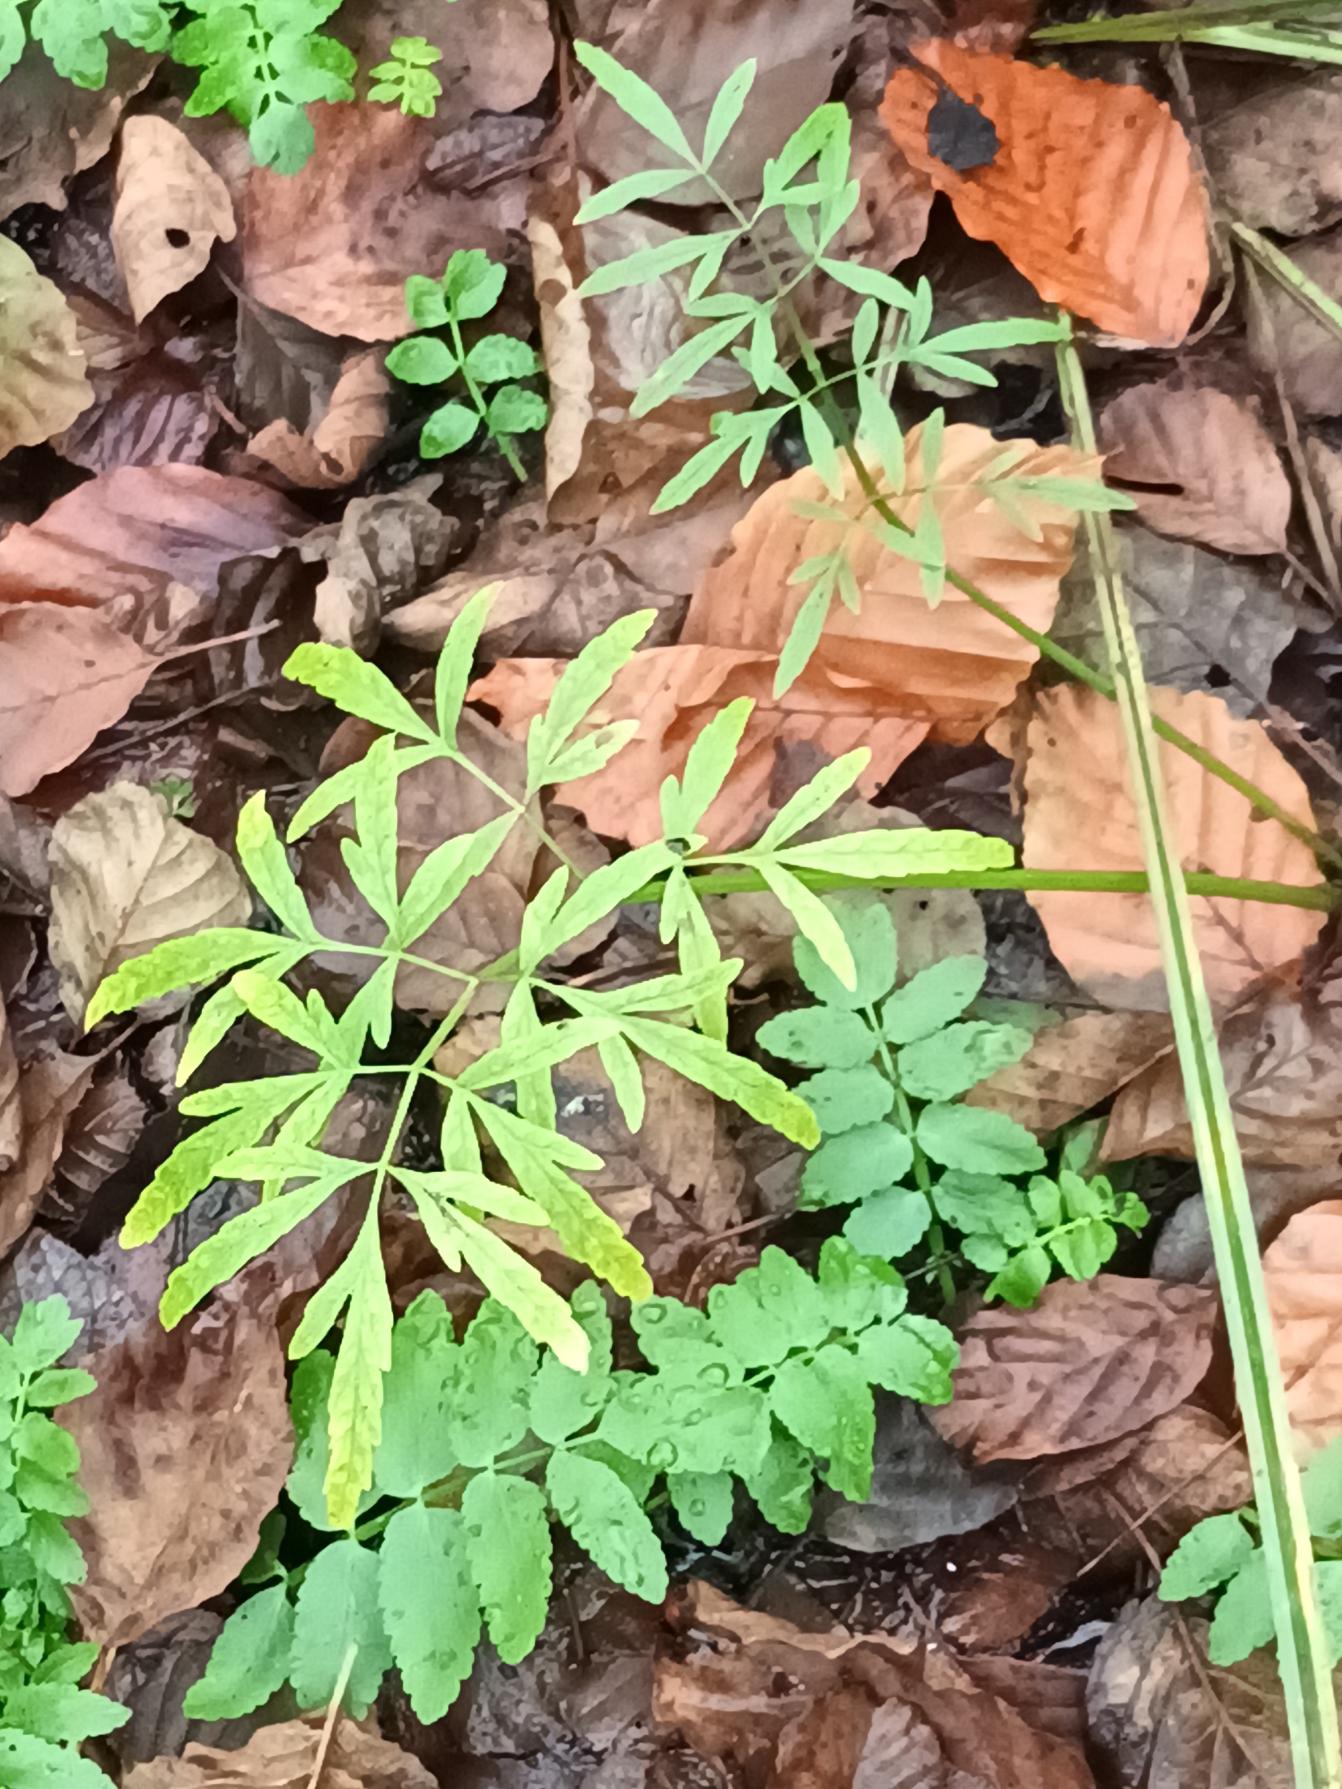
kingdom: Plantae
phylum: Tracheophyta
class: Magnoliopsida
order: Apiales
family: Apiaceae
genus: Cicuta
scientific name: Cicuta virosa
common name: Gifttyde
